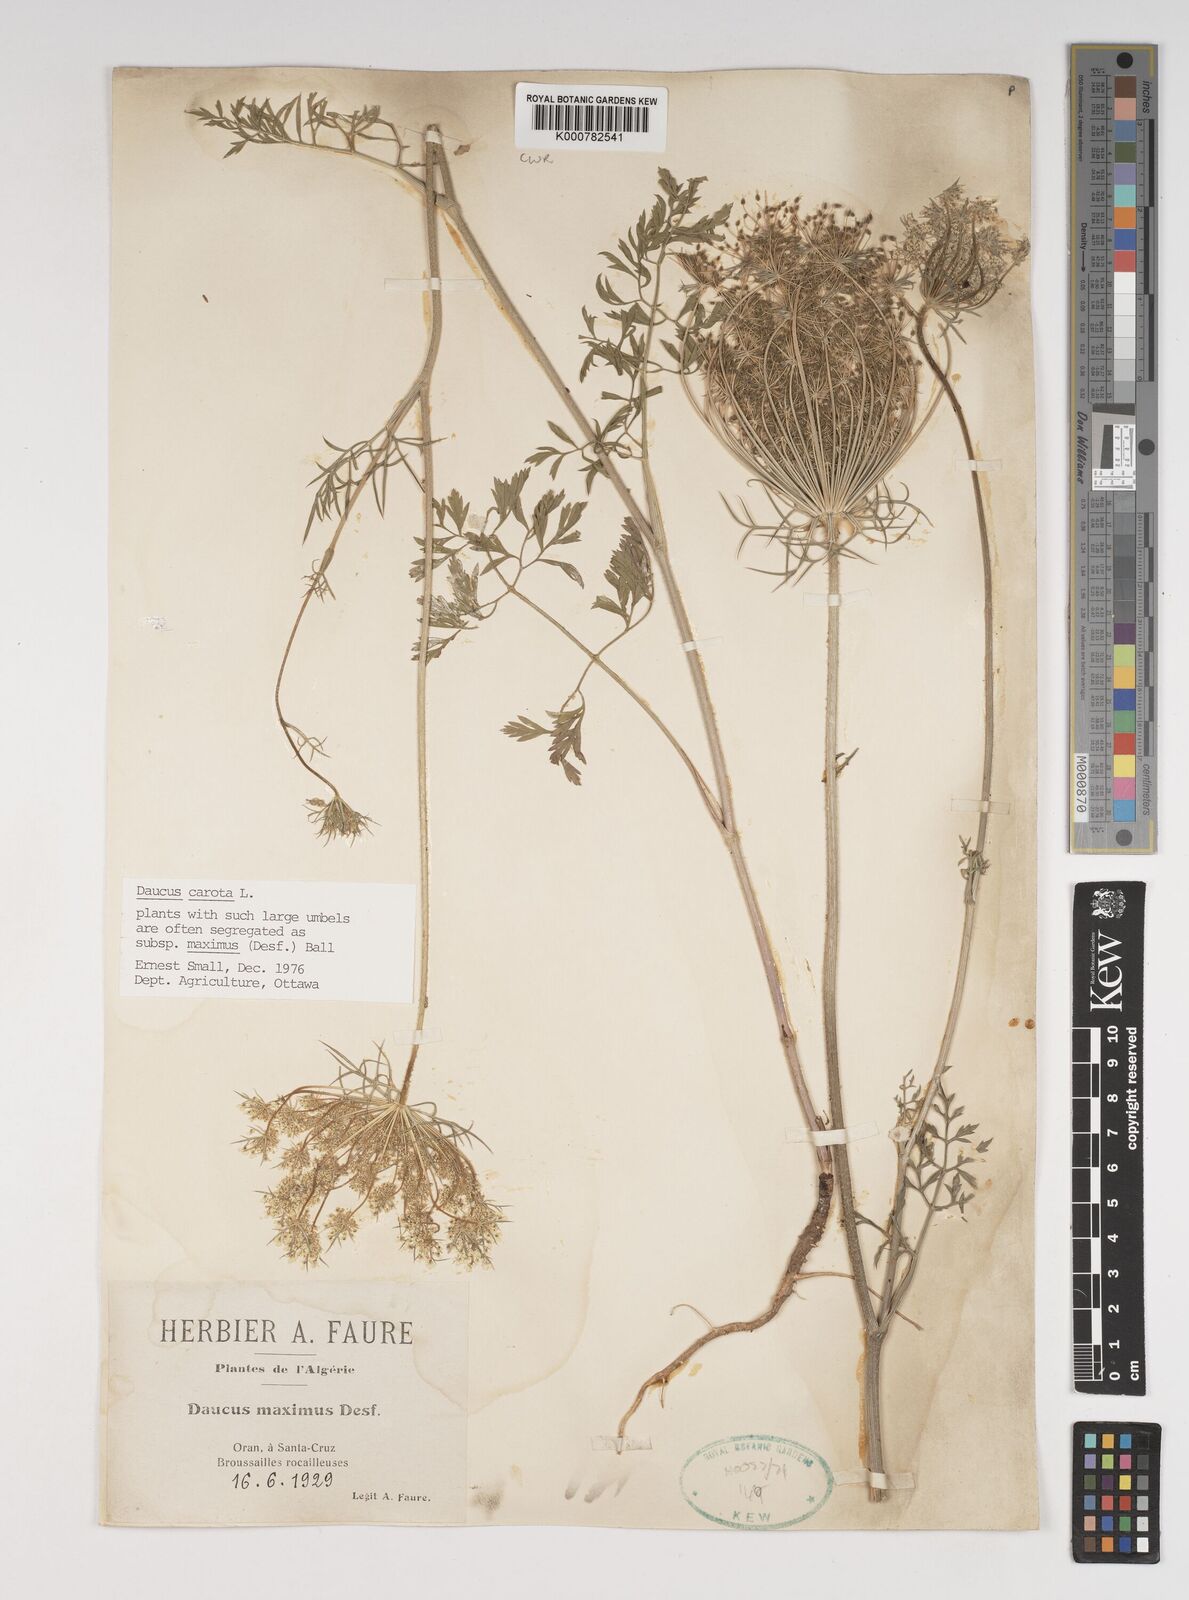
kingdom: Plantae
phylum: Tracheophyta
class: Magnoliopsida
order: Apiales
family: Apiaceae
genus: Daucus
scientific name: Daucus carota
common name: Wild carrot
